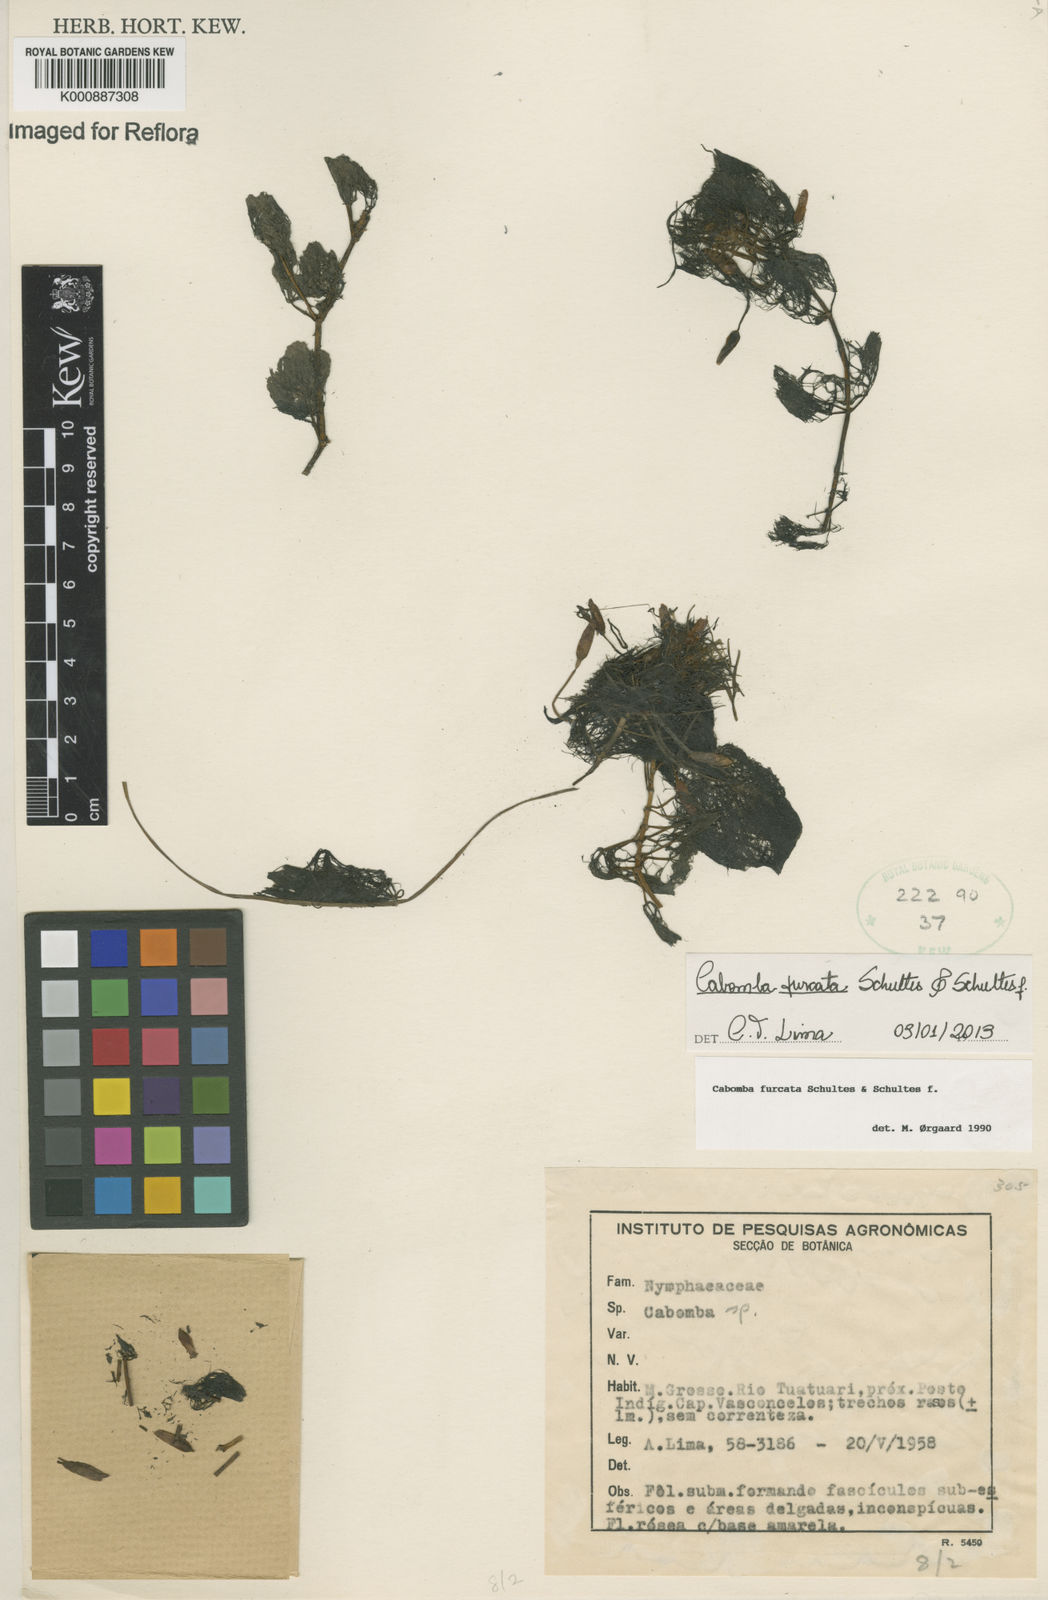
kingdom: Plantae
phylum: Tracheophyta
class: Magnoliopsida
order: Nymphaeales
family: Cabombaceae
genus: Cabomba
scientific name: Cabomba furcata
